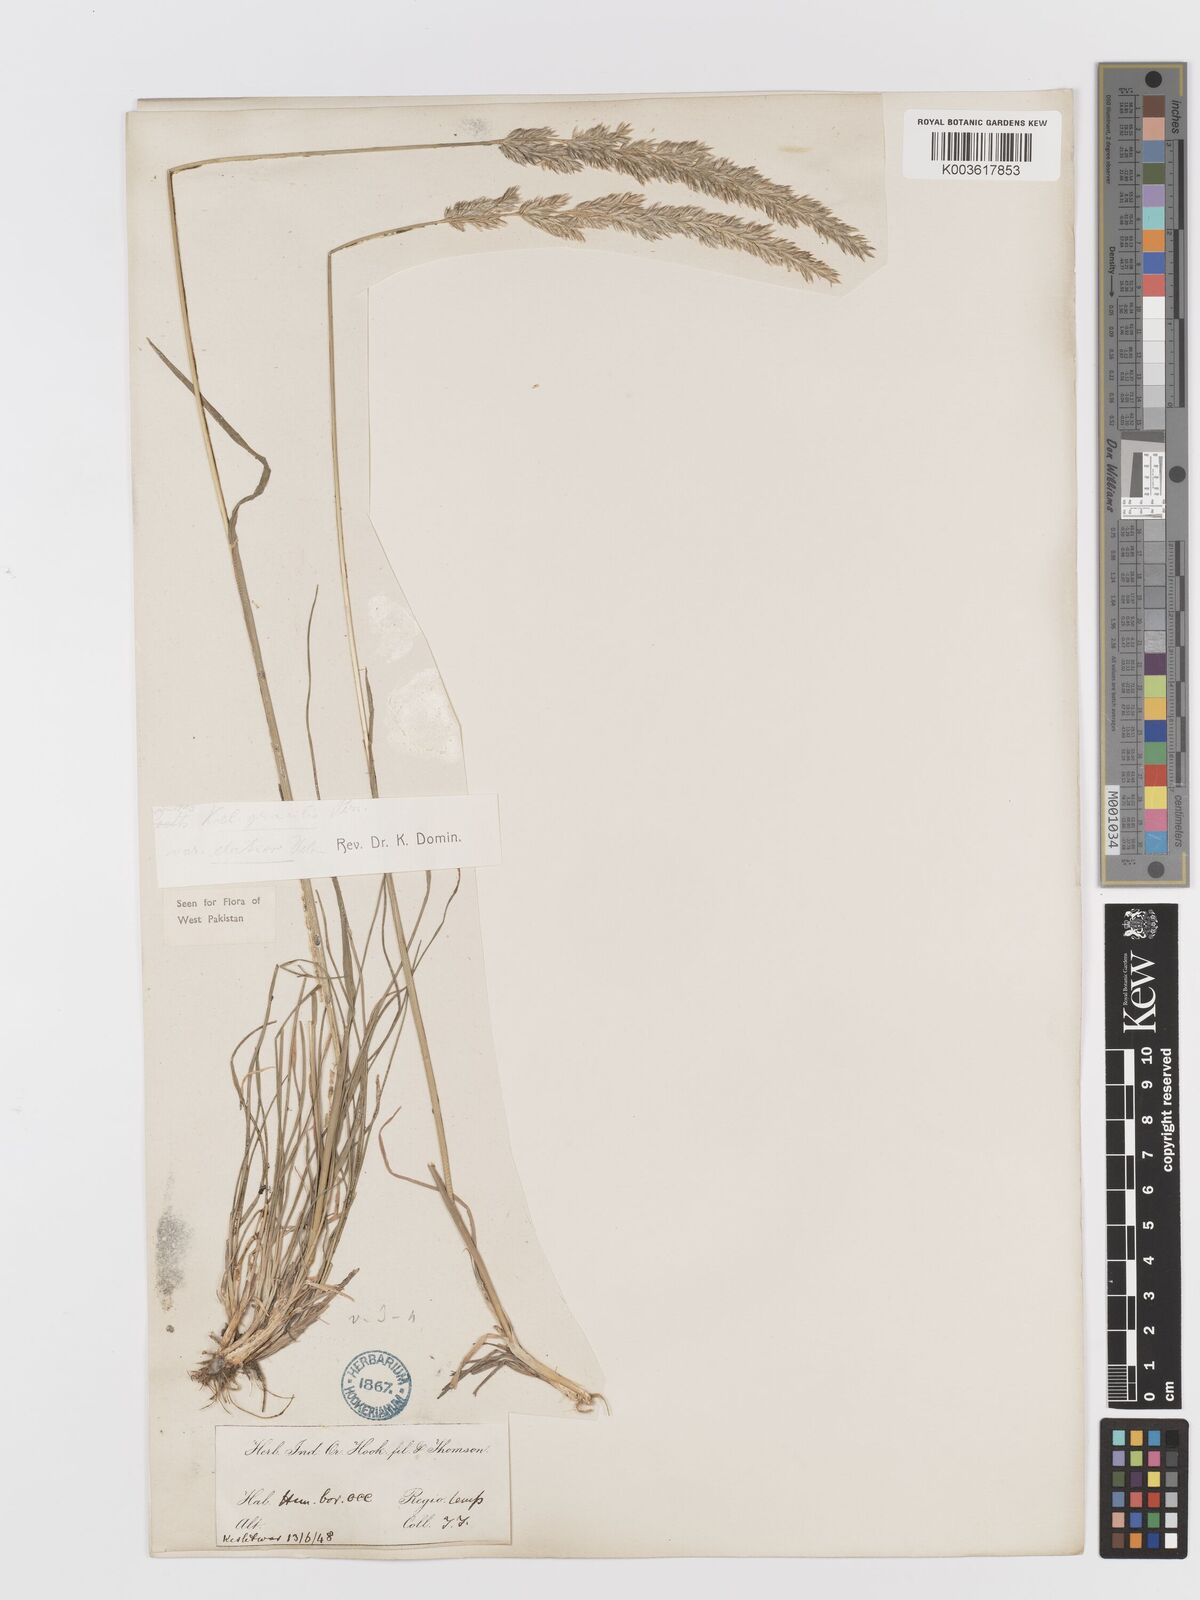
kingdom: Plantae
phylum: Tracheophyta
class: Liliopsida
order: Poales
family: Poaceae
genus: Koeleria
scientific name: Koeleria macrantha
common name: Crested hair-grass
